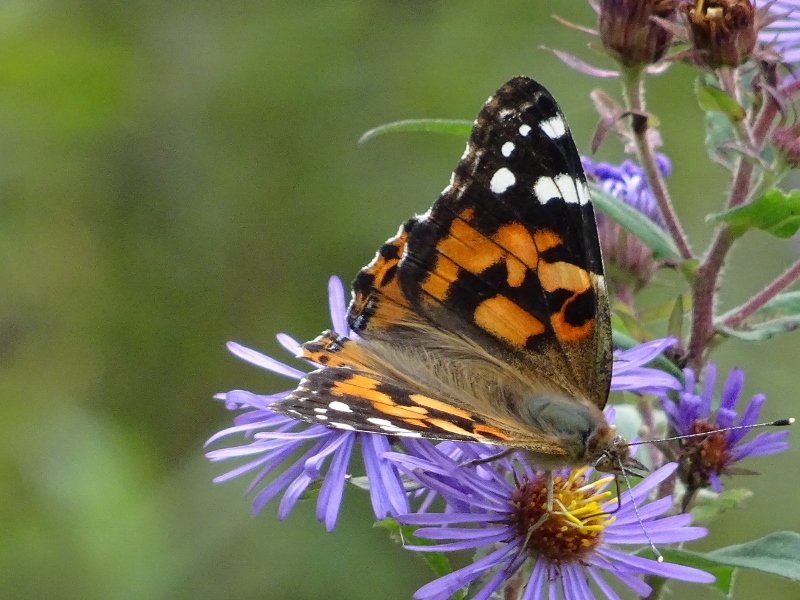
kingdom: Animalia
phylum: Arthropoda
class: Insecta
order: Lepidoptera
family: Nymphalidae
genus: Vanessa
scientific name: Vanessa cardui
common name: Painted Lady
